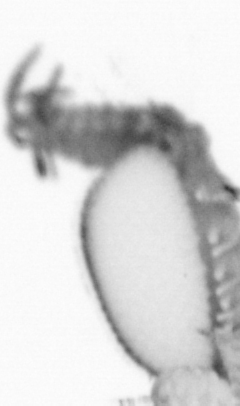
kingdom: Animalia
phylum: Annelida
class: Polychaeta
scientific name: Polychaeta
